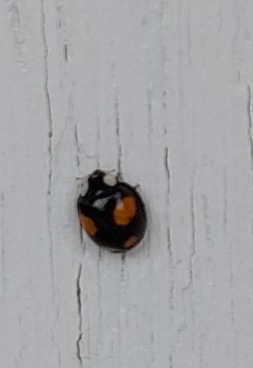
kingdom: Animalia
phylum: Arthropoda
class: Insecta
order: Coleoptera
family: Coccinellidae
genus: Harmonia
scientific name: Harmonia axyridis
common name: Harlekinmariehøne
